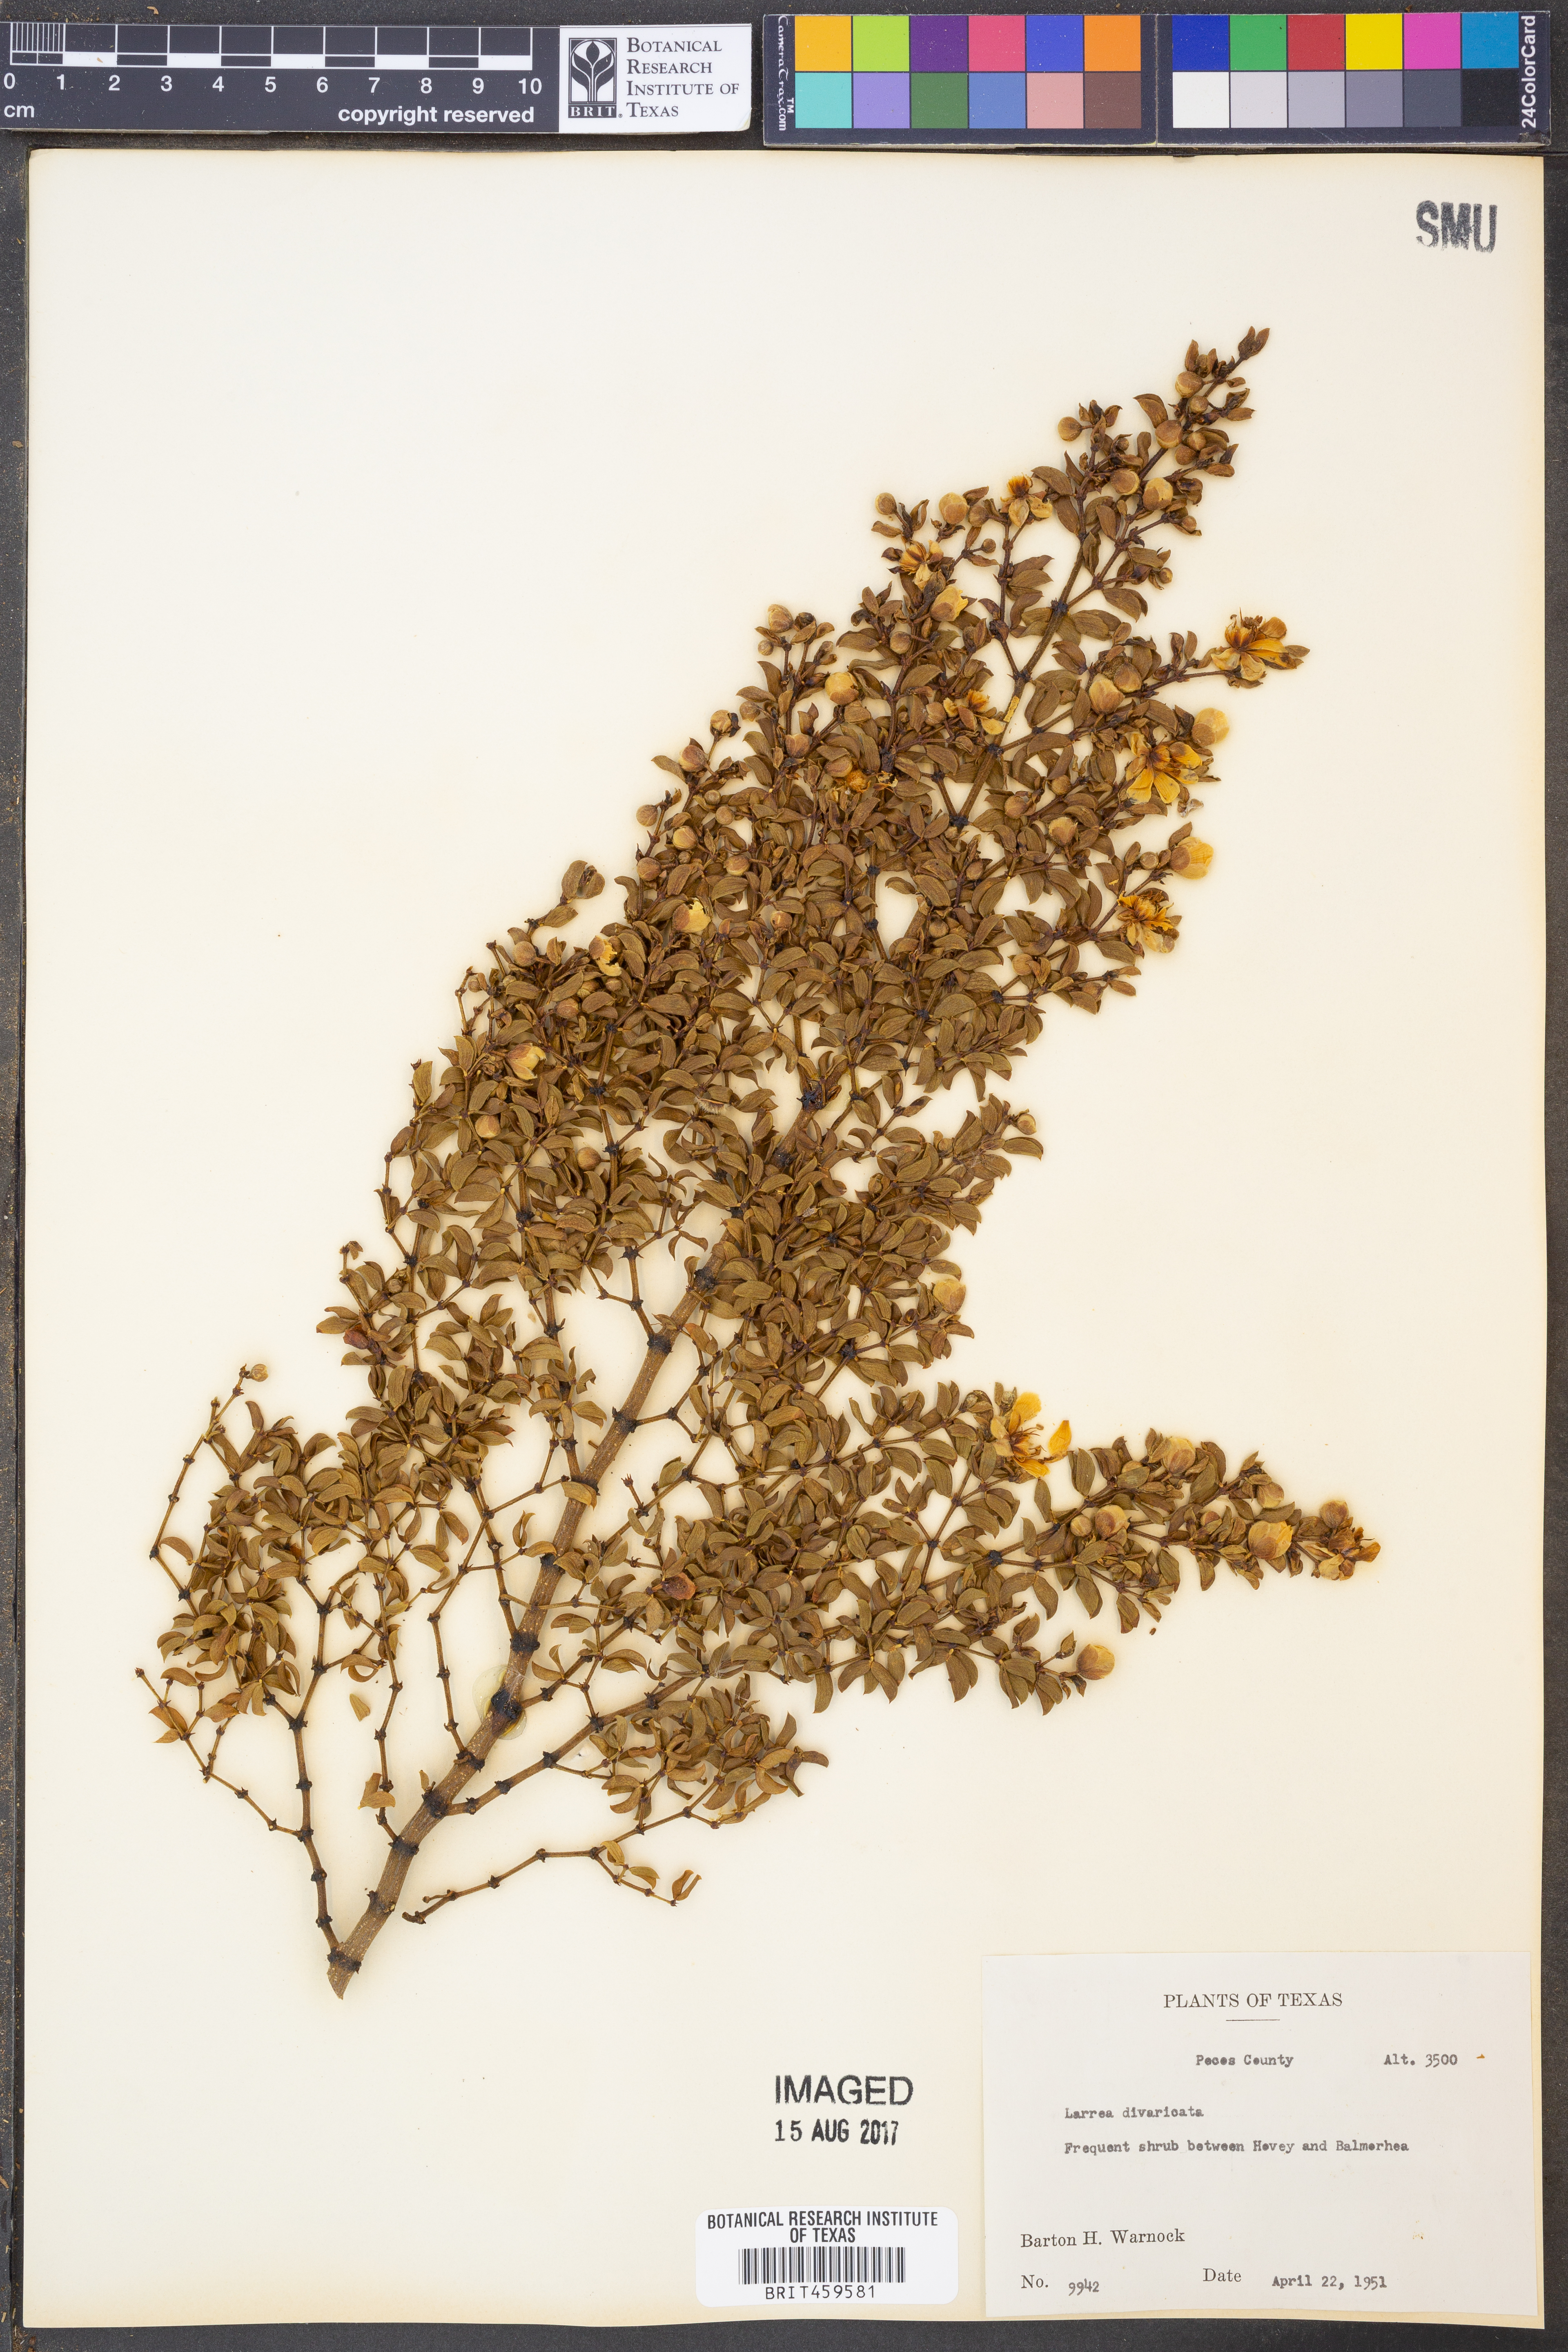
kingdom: Plantae
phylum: Tracheophyta
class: Magnoliopsida
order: Zygophyllales
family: Zygophyllaceae
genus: Larrea
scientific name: Larrea divaricata
